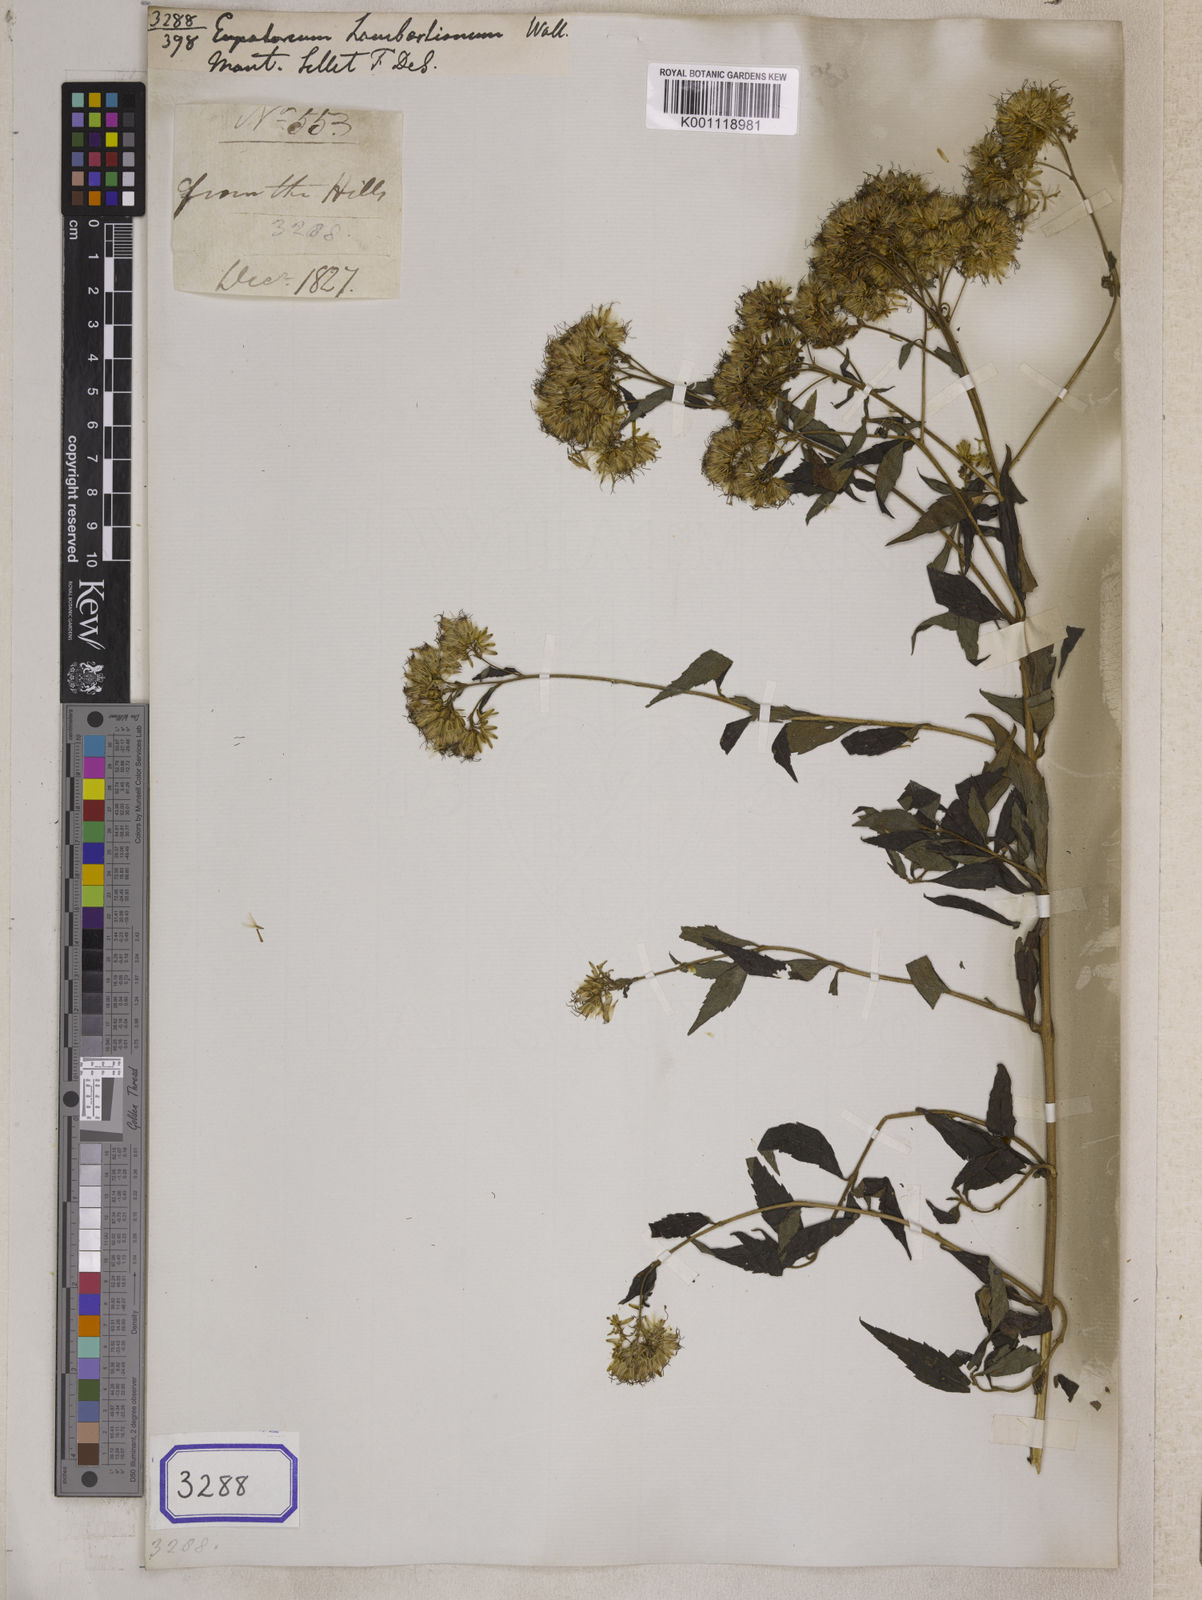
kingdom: Plantae
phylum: Tracheophyta
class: Magnoliopsida
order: Asterales
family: Asteraceae
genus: Eupatorium
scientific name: Eupatorium cannabinum
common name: Hemp-agrimony
